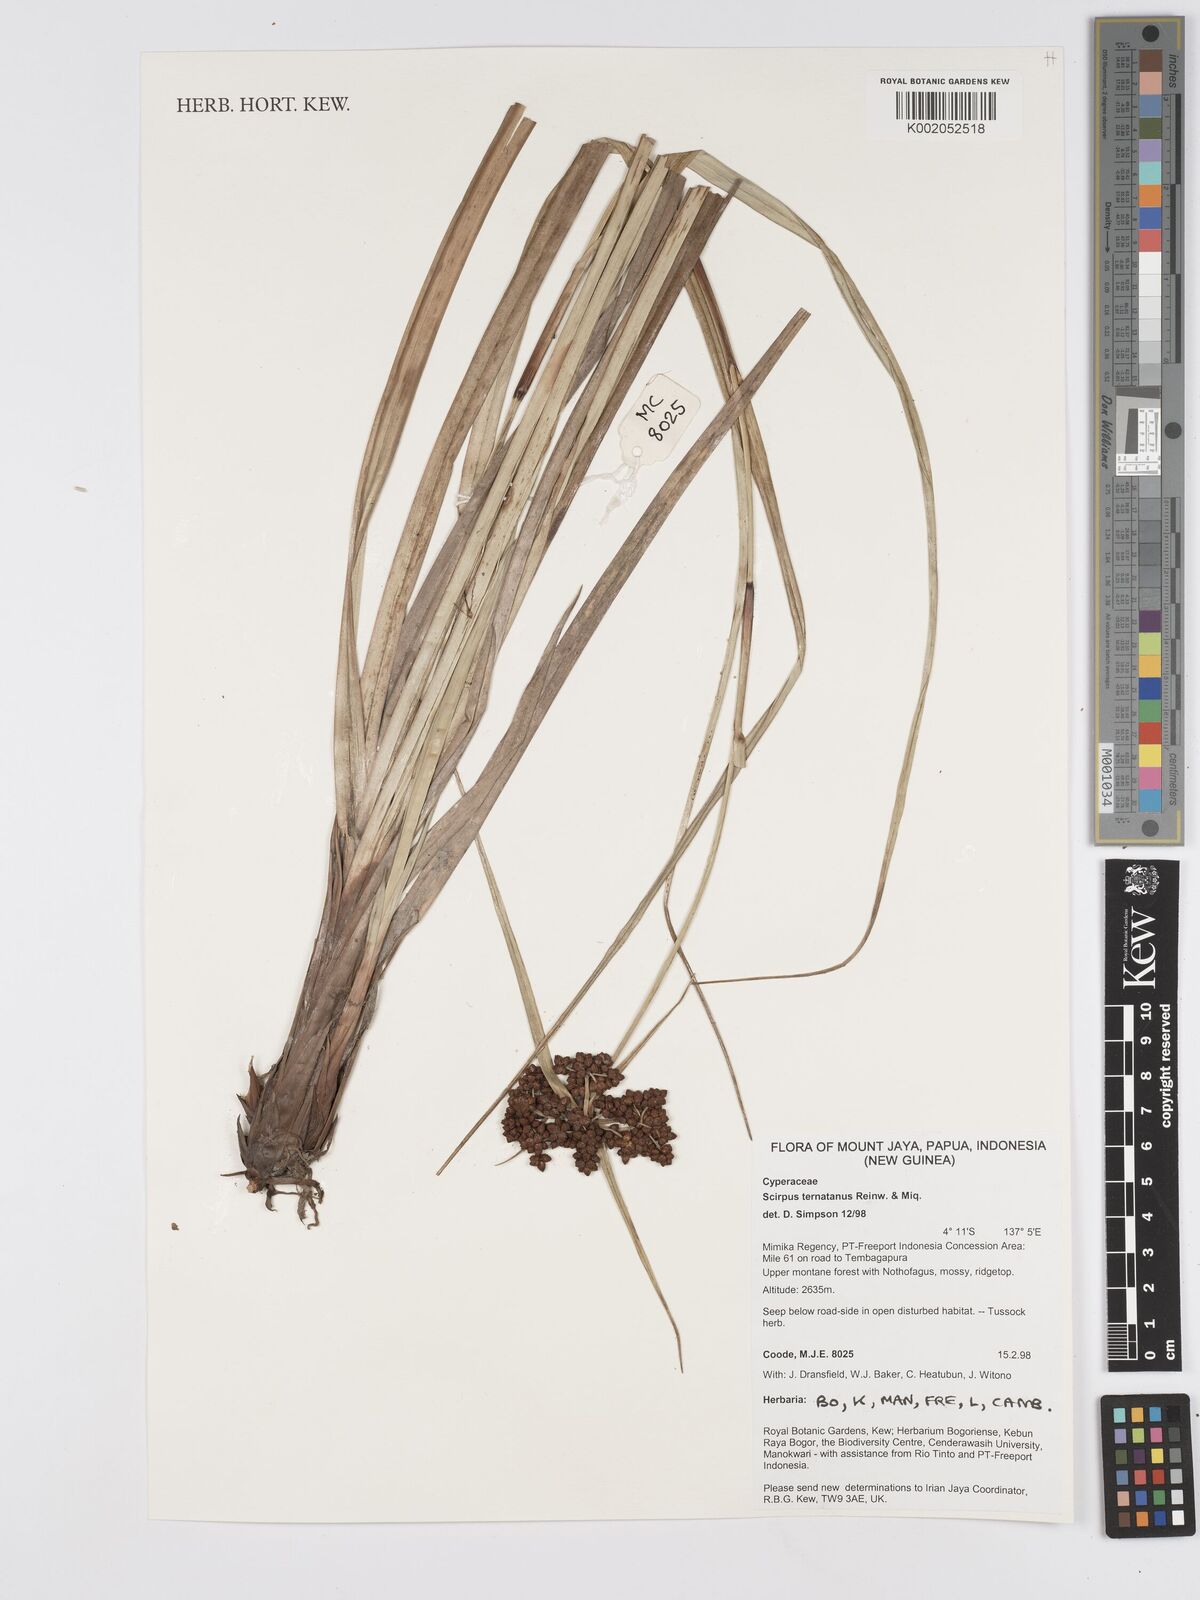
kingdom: Plantae
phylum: Tracheophyta
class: Liliopsida
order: Poales
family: Cyperaceae
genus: Scirpus
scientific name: Scirpus ternatanus
